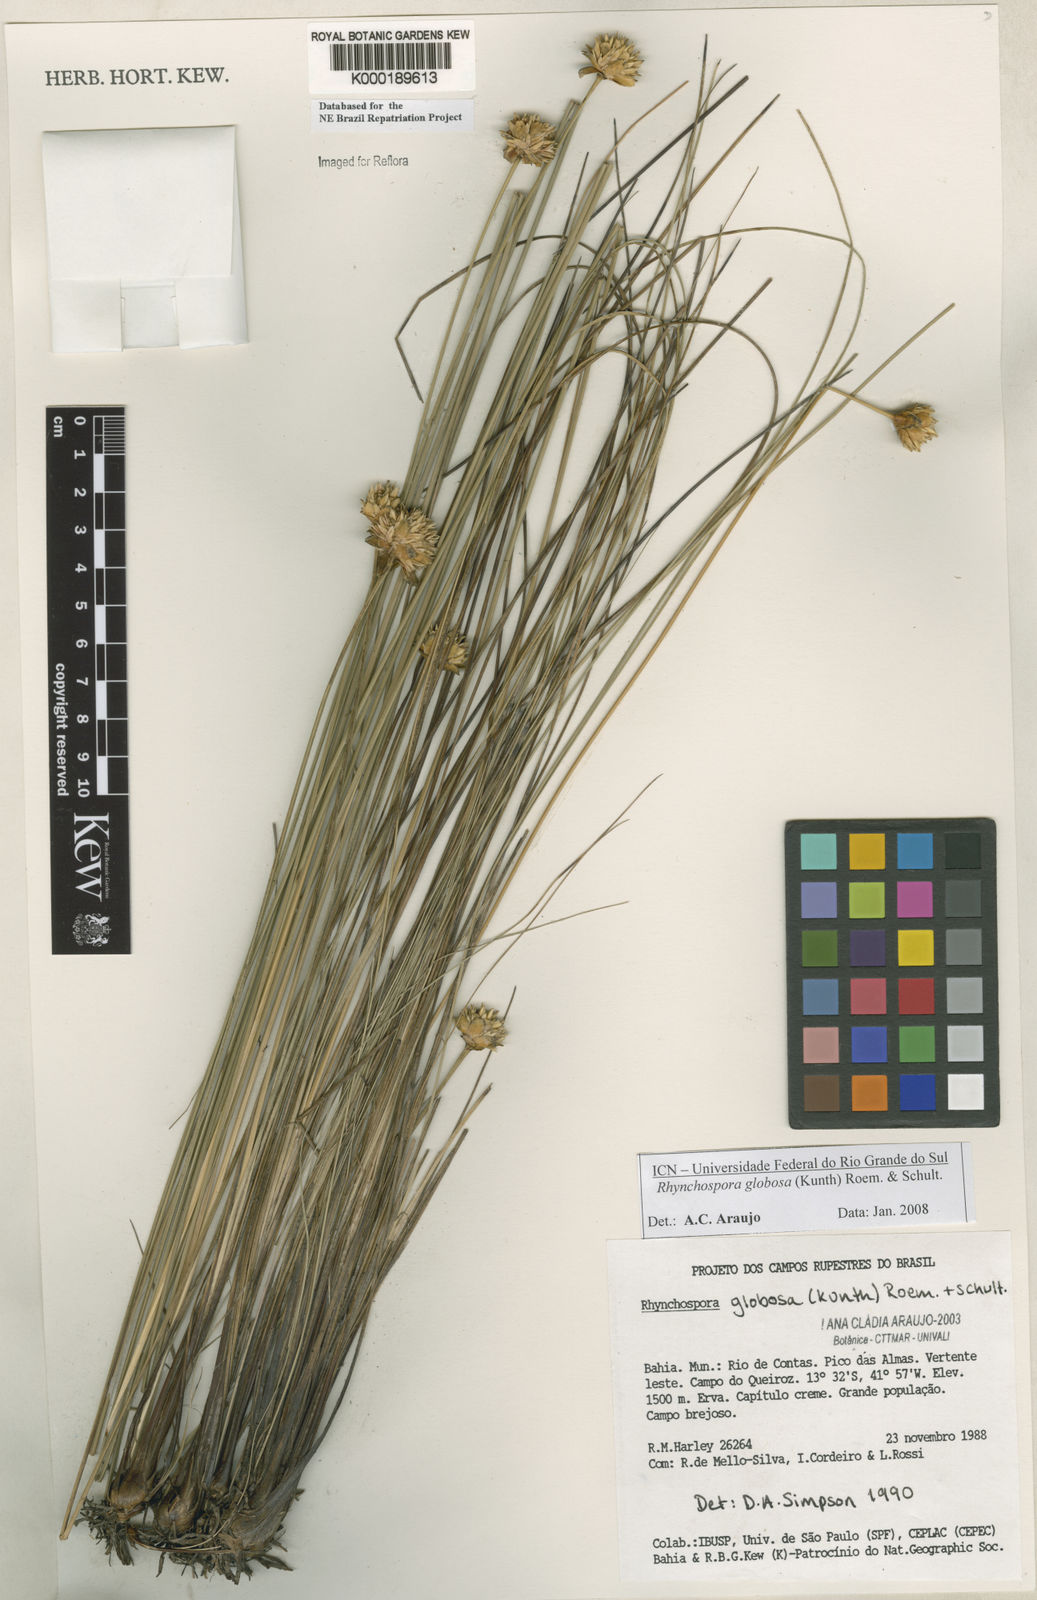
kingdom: Plantae
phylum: Tracheophyta
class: Liliopsida
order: Poales
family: Cyperaceae
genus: Rhynchospora
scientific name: Rhynchospora globosa
